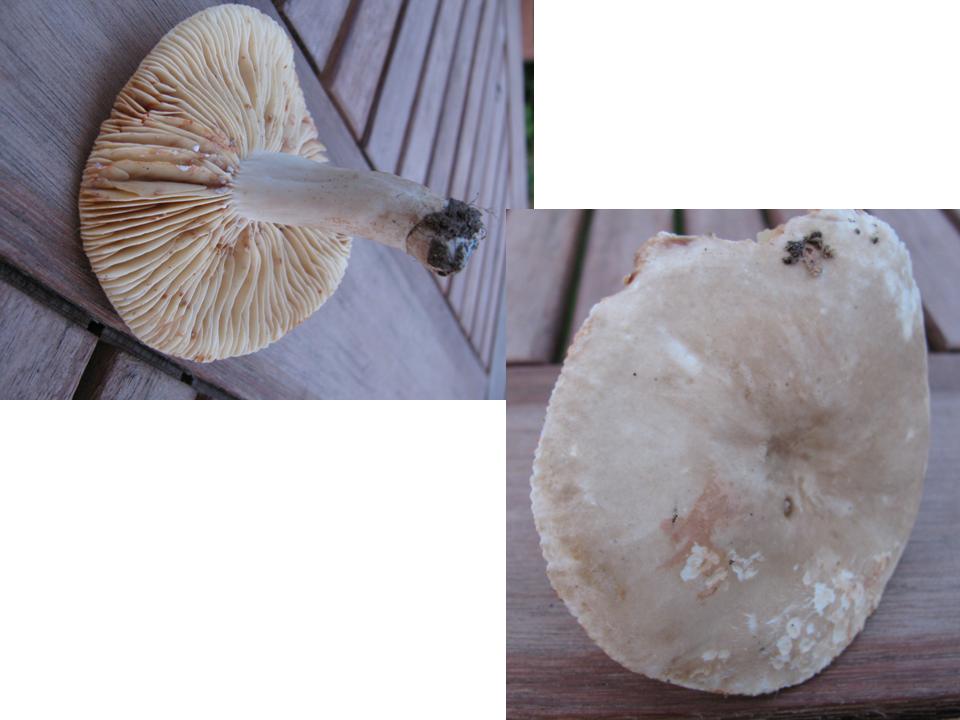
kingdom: Fungi
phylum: Basidiomycota
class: Agaricomycetes
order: Russulales
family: Russulaceae
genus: Lactarius
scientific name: Lactarius ruginosus
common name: gråbrun mælkehat
